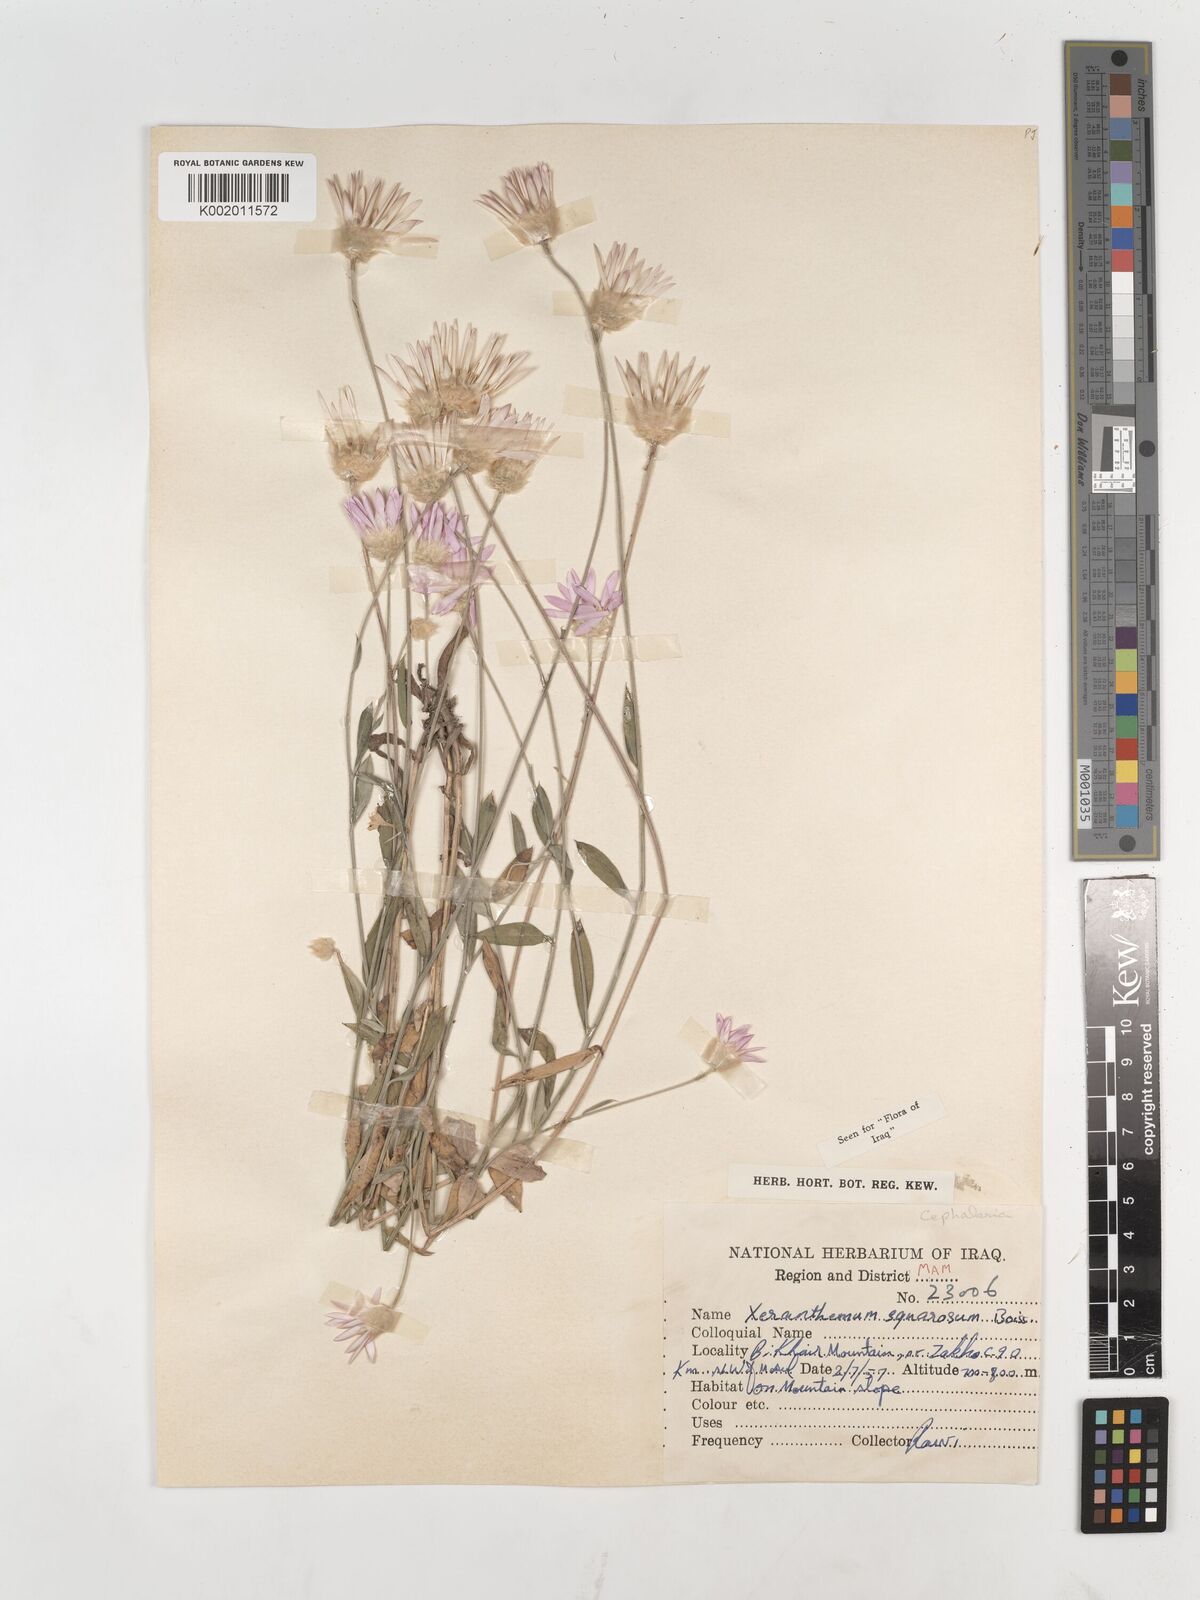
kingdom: Plantae
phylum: Tracheophyta
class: Magnoliopsida
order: Asterales
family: Asteraceae
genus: Xeranthemum
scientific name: Xeranthemum annuum
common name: Immortelle
